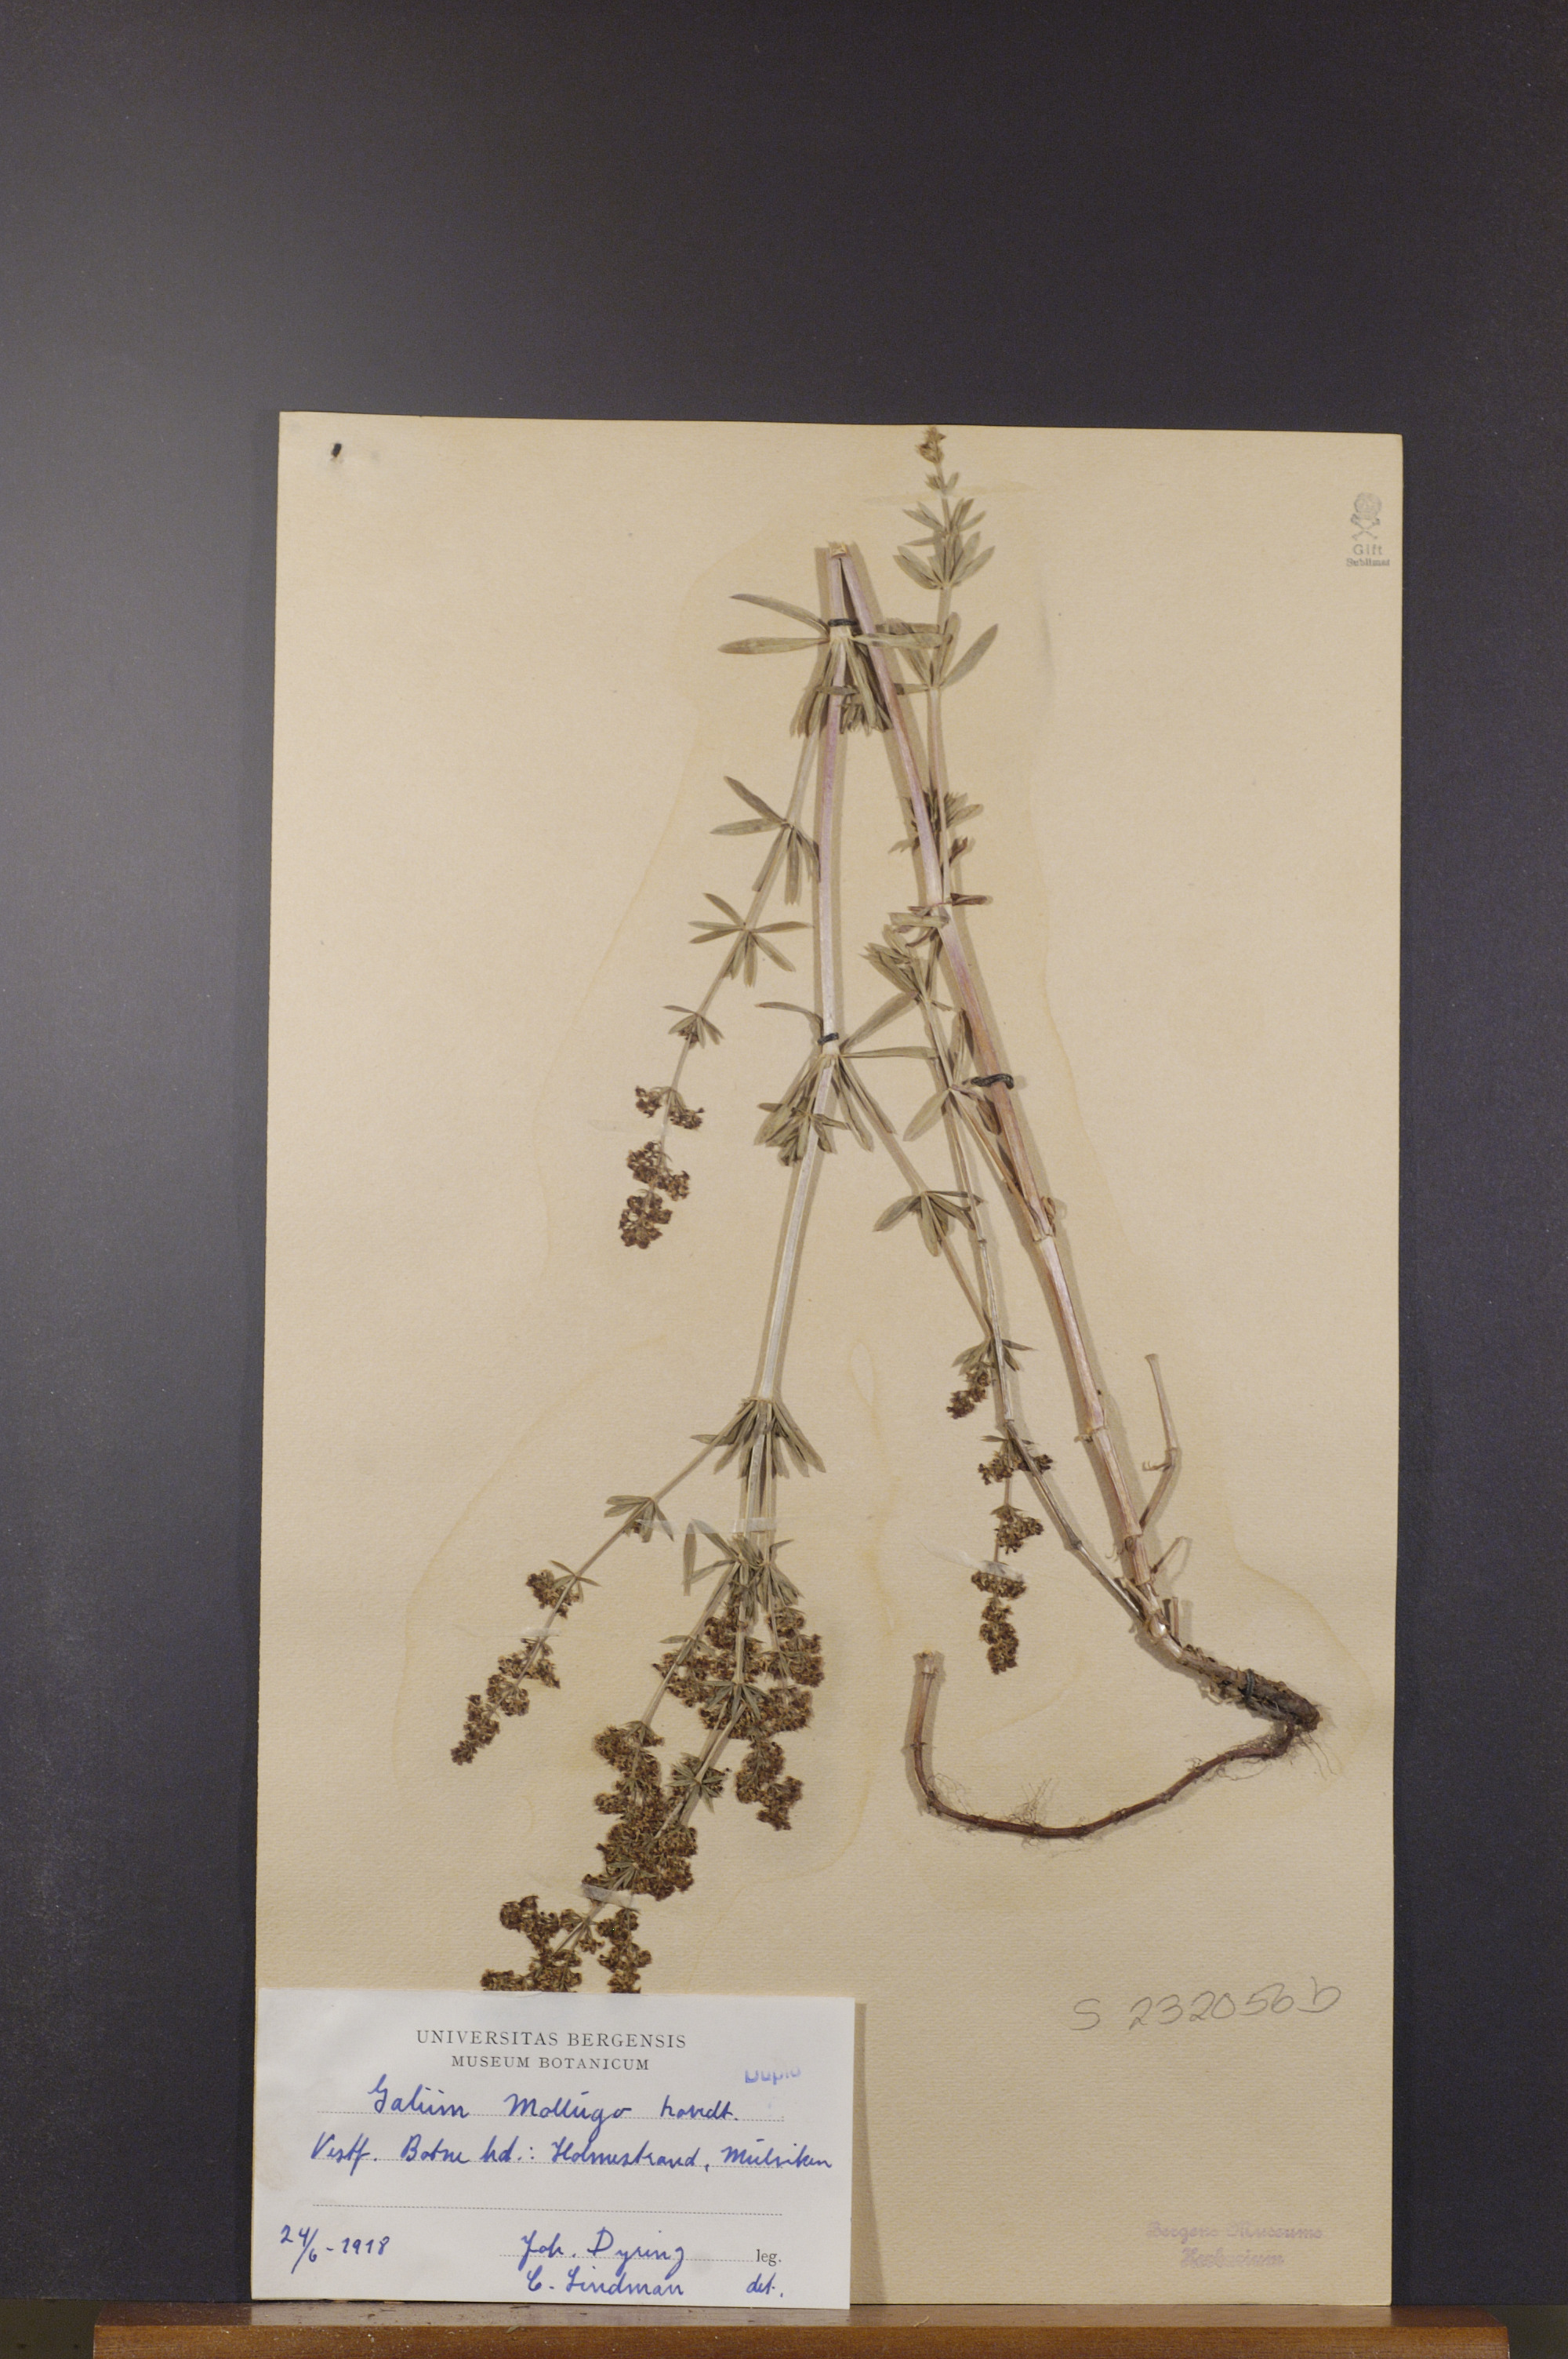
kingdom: Plantae
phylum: Tracheophyta
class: Magnoliopsida
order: Gentianales
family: Rubiaceae
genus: Galium
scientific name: Galium mollugo
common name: Hedge bedstraw
